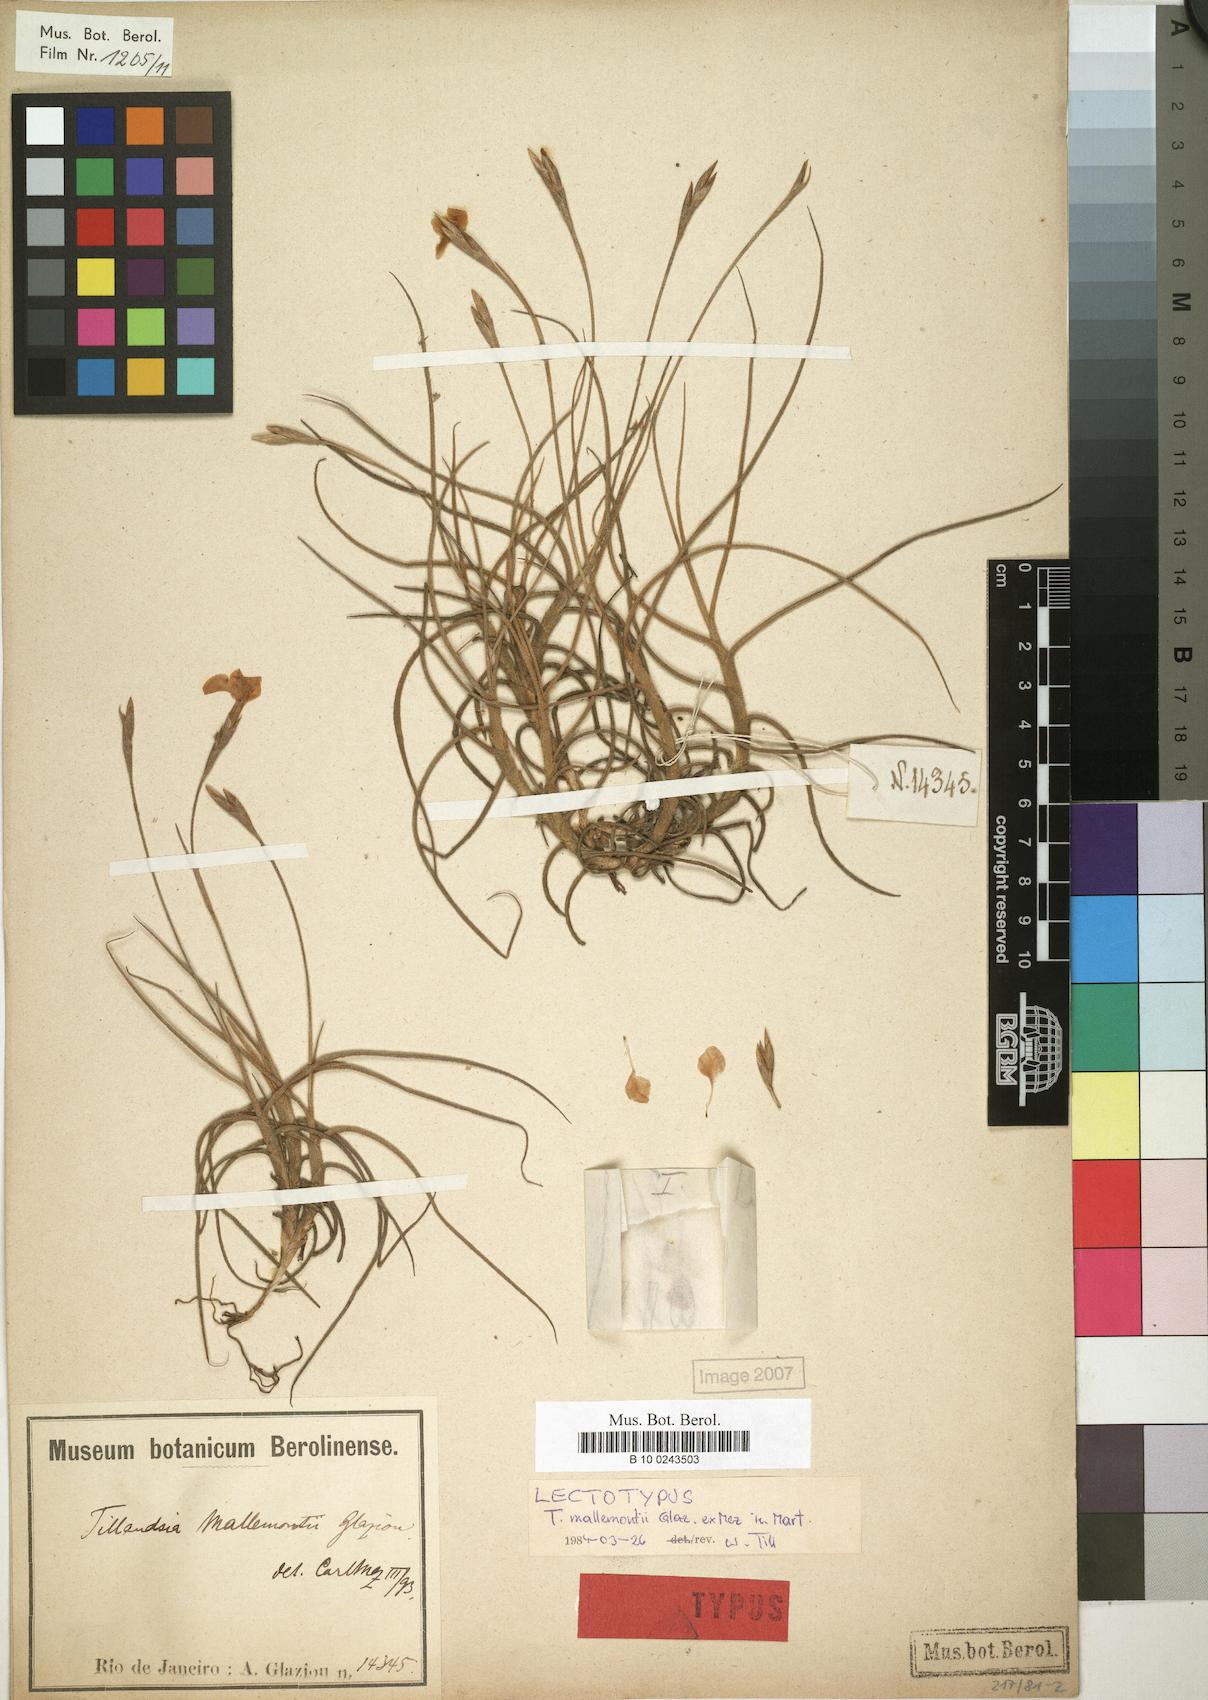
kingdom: Plantae
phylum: Tracheophyta
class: Liliopsida
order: Poales
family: Bromeliaceae
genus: Tillandsia
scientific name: Tillandsia mallemontii
